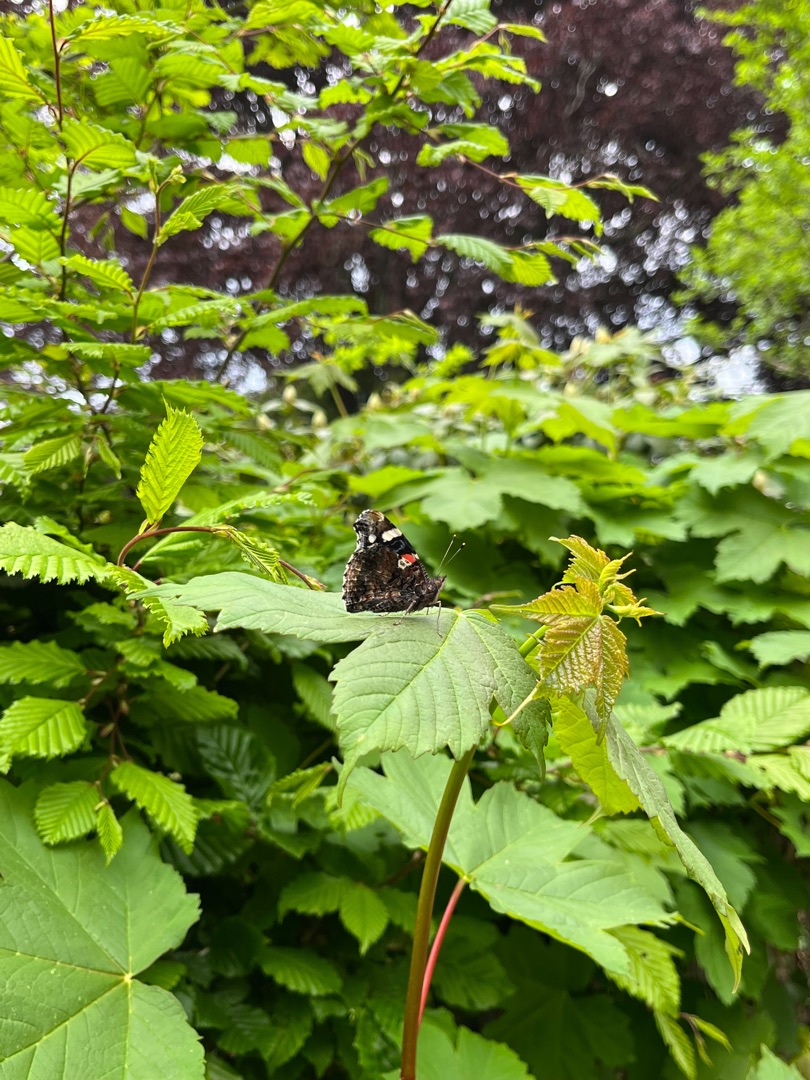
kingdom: Animalia
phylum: Arthropoda
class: Insecta
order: Lepidoptera
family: Nymphalidae
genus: Vanessa
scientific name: Vanessa atalanta
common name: Admiral
